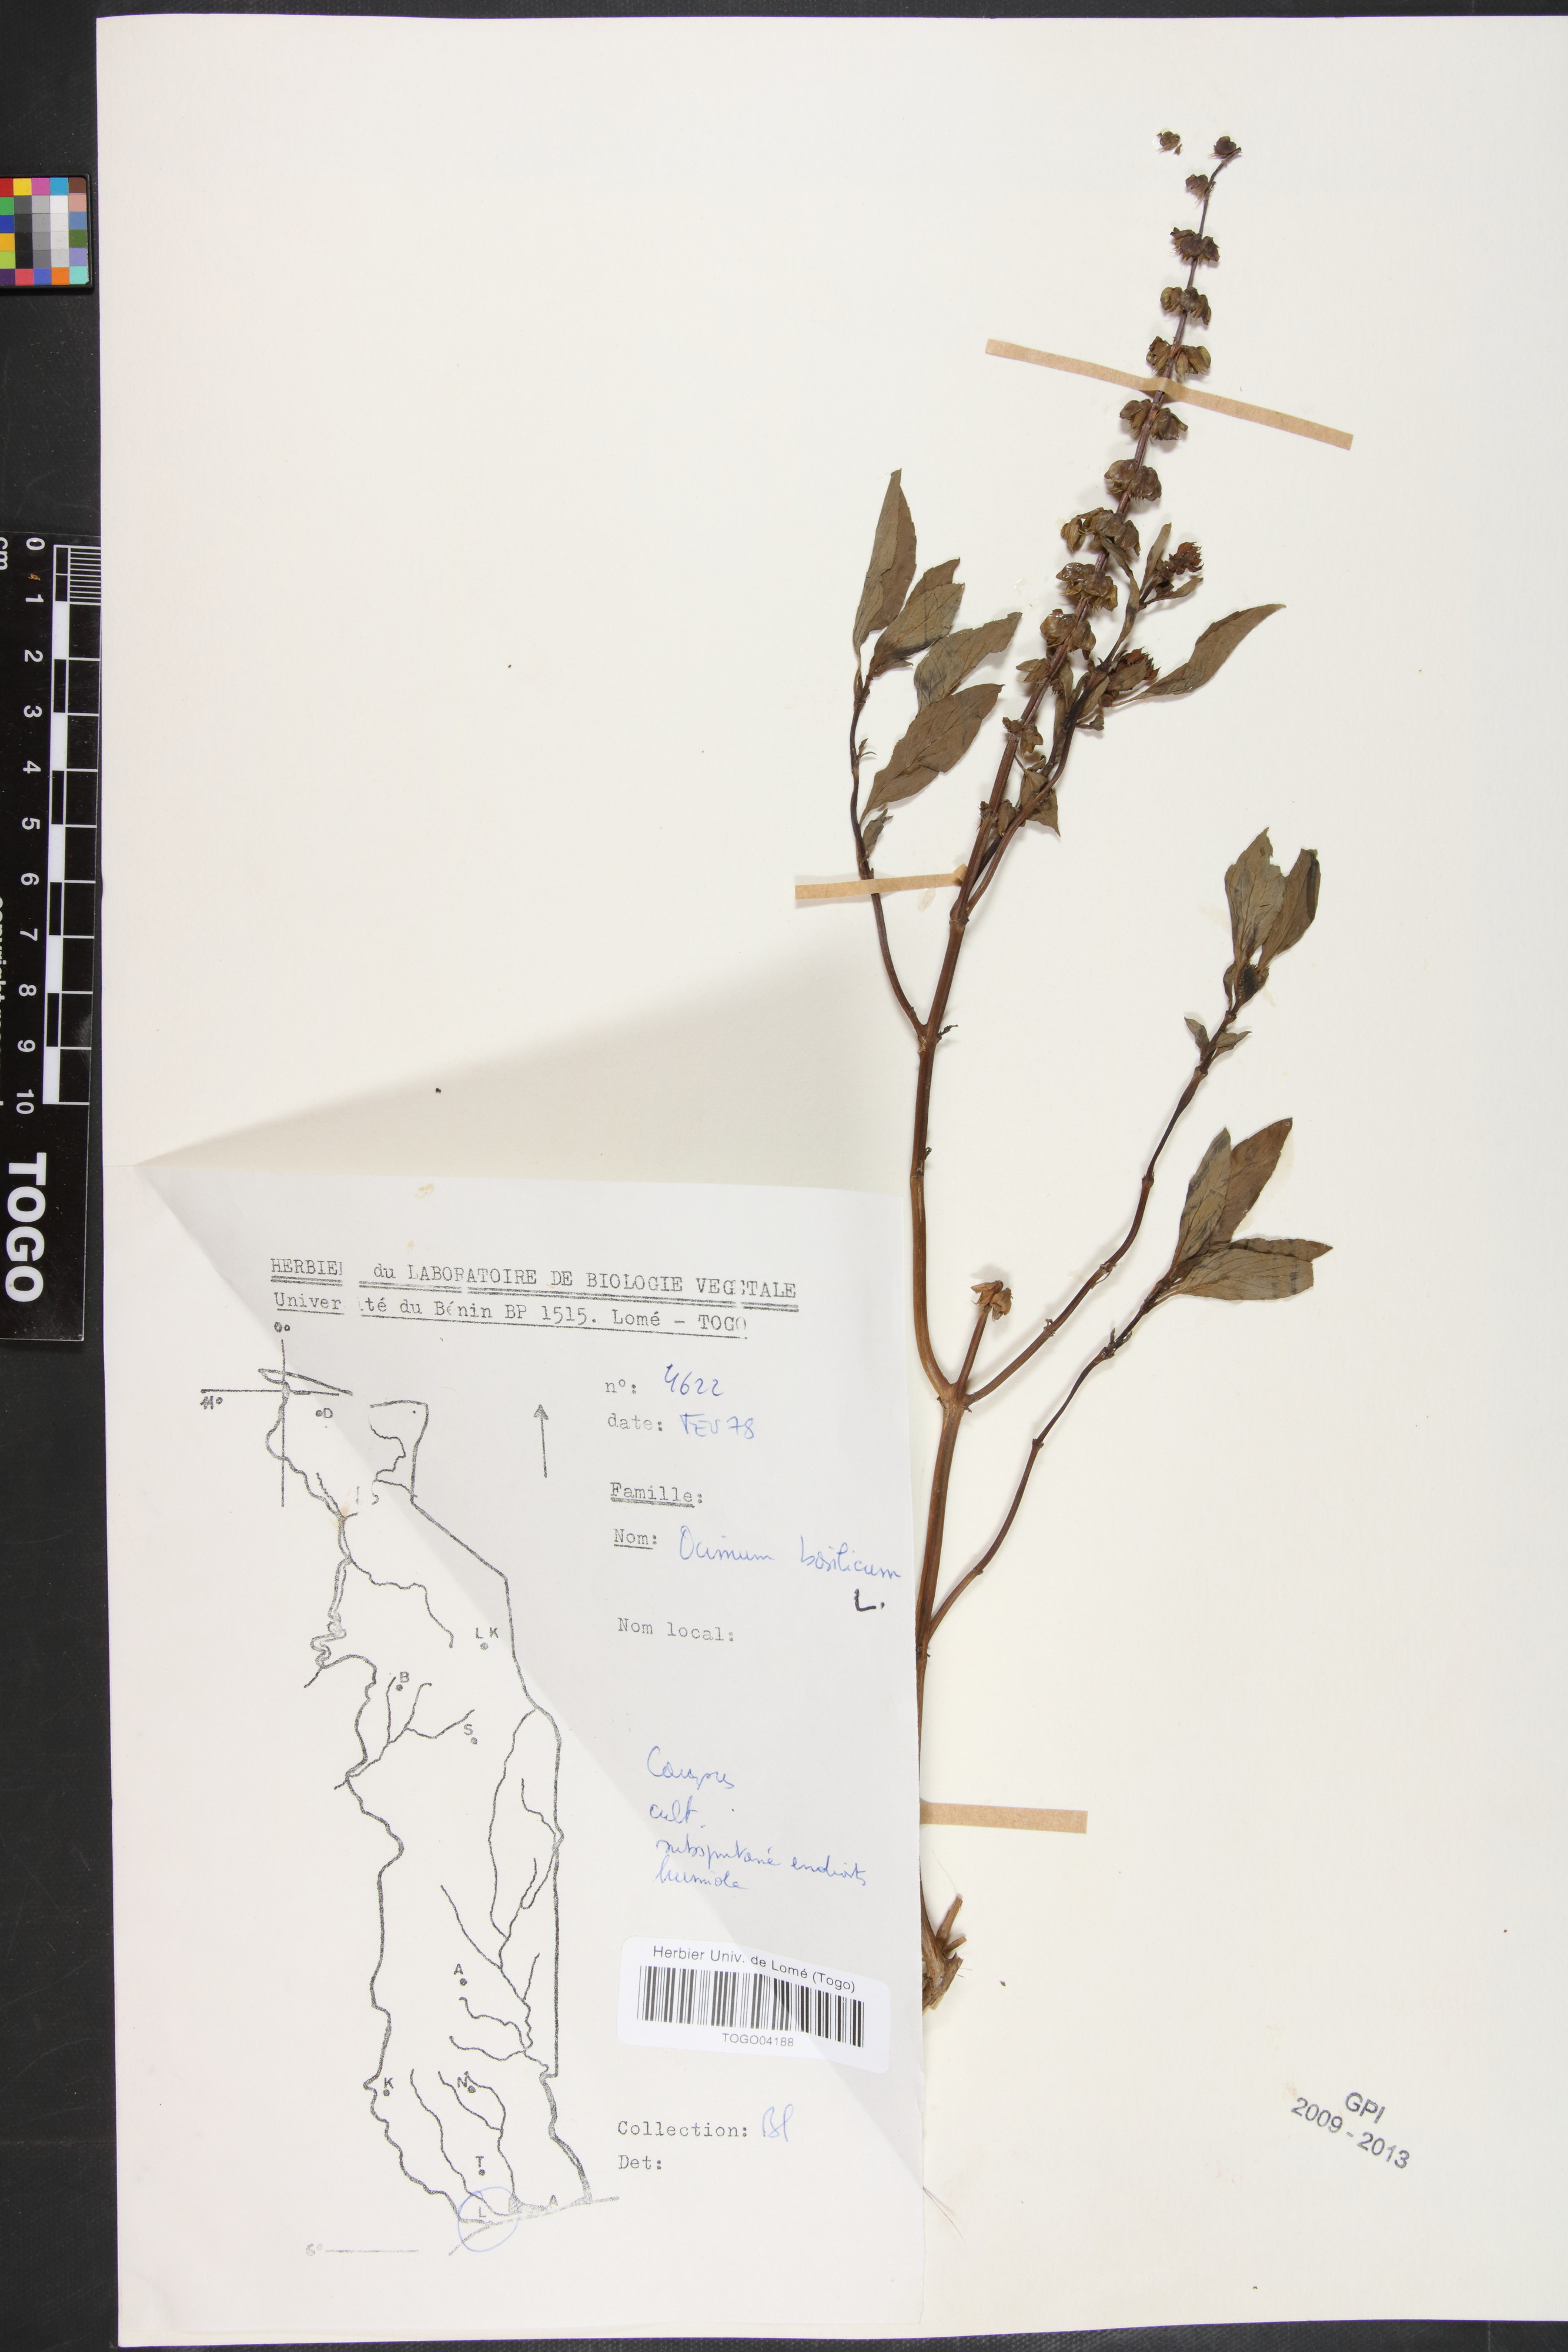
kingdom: Plantae
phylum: Tracheophyta
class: Magnoliopsida
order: Lamiales
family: Lamiaceae
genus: Ocimum
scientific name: Ocimum basilicum
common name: Sweet basil
